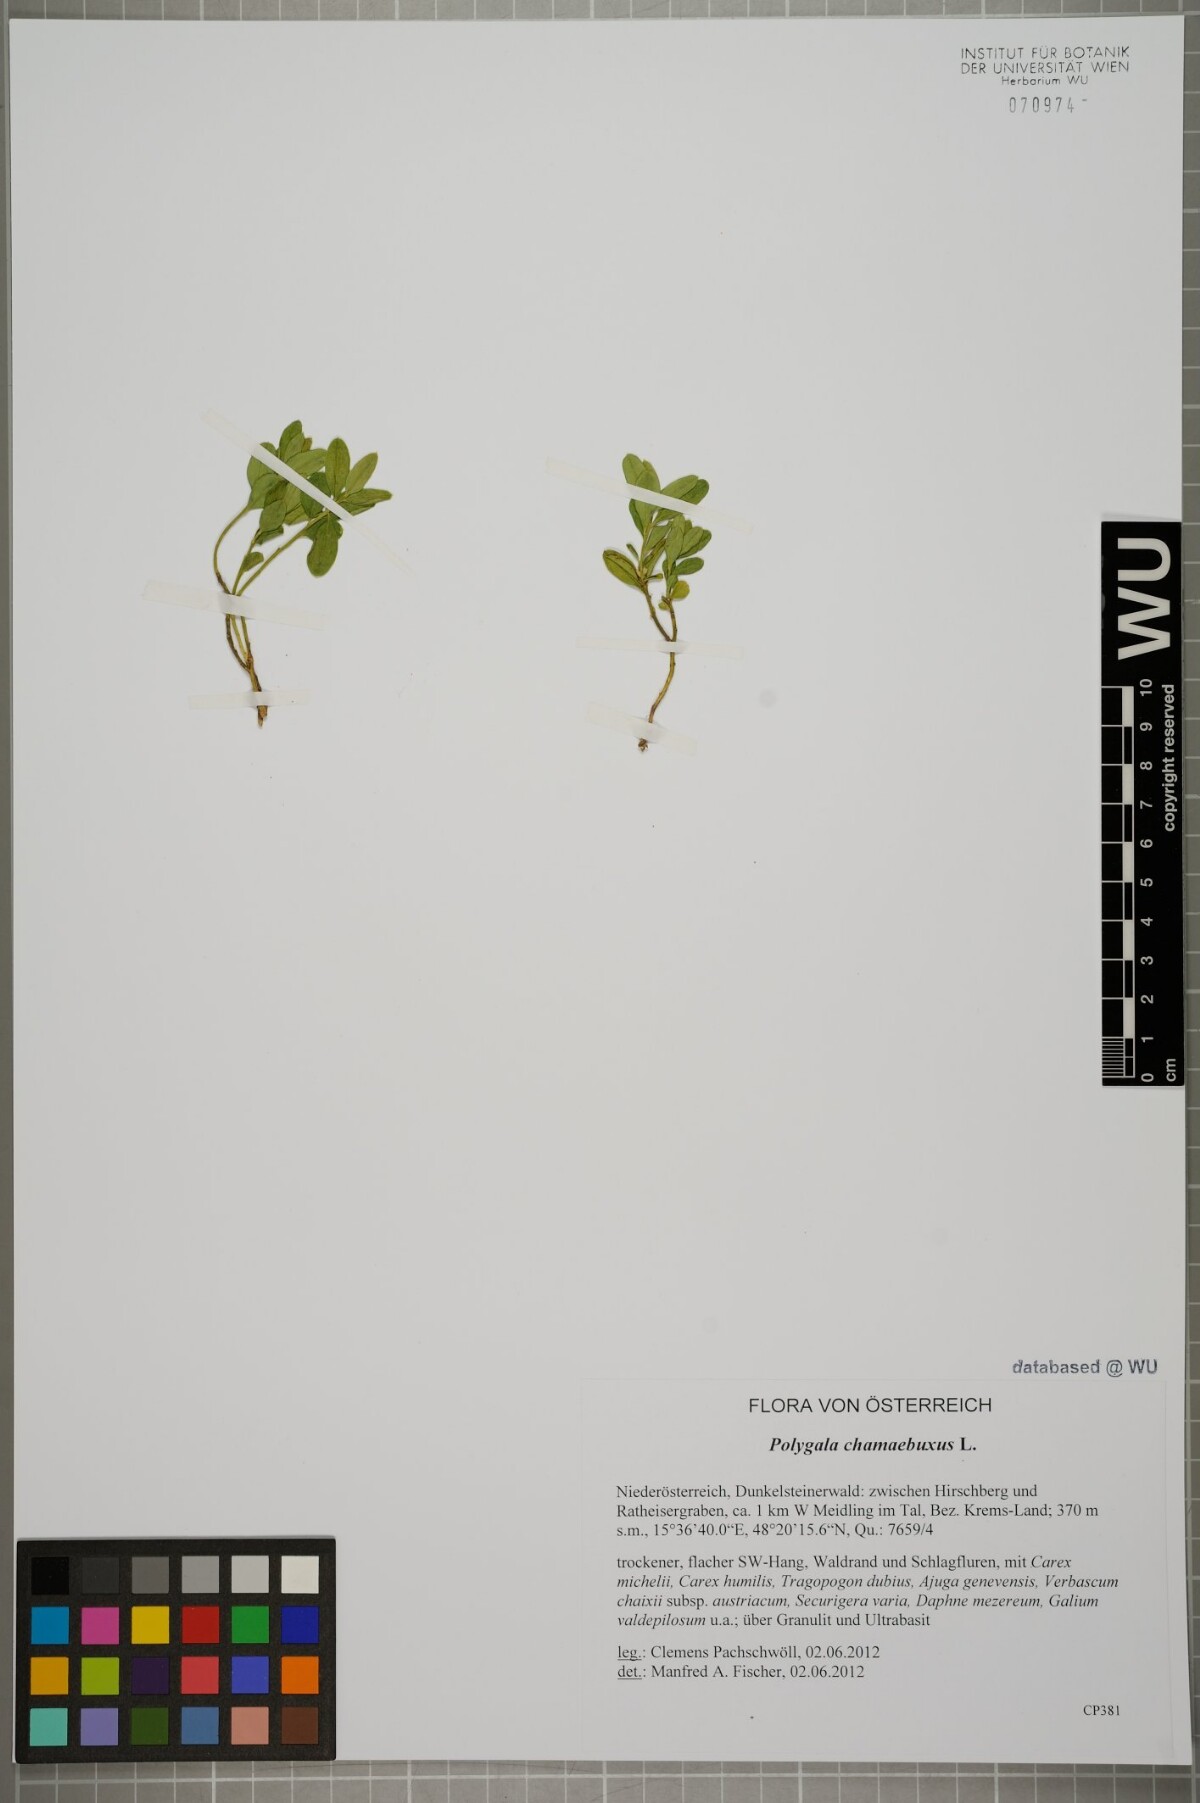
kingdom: Plantae
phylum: Tracheophyta
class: Magnoliopsida
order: Fabales
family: Polygalaceae
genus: Polygaloides
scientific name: Polygaloides chamaebuxus
